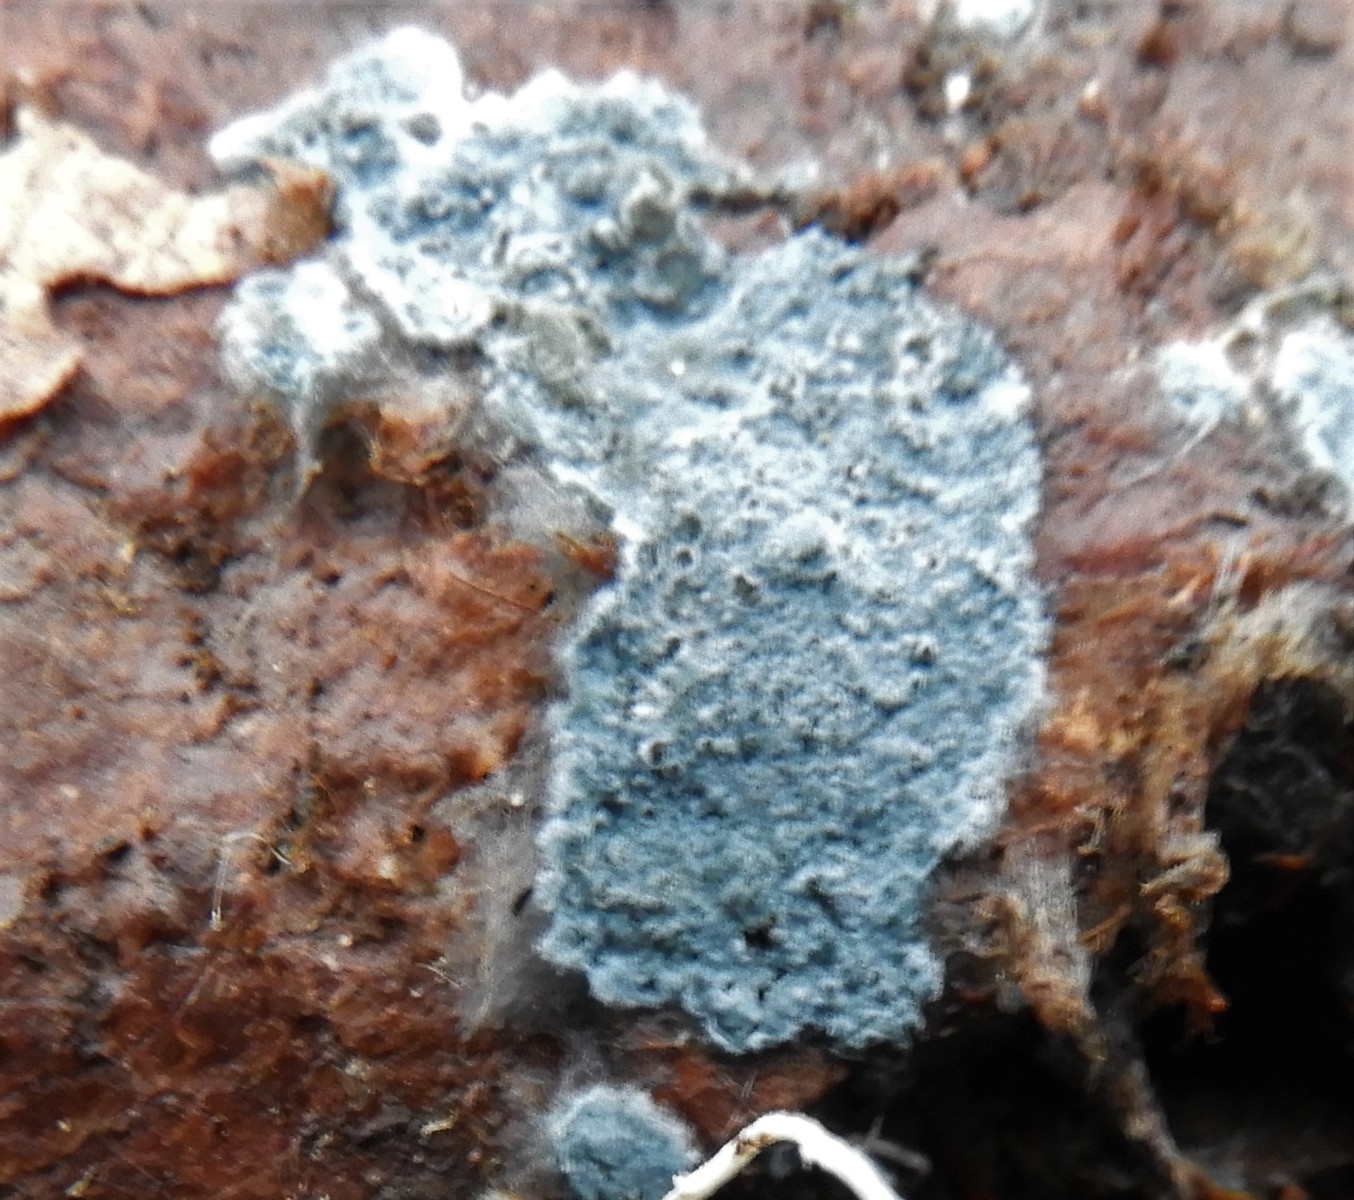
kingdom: Fungi
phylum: Basidiomycota
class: Agaricomycetes
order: Atheliales
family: Atheliaceae
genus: Byssocorticium
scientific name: Byssocorticium atrovirens
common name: blå førnehinde
